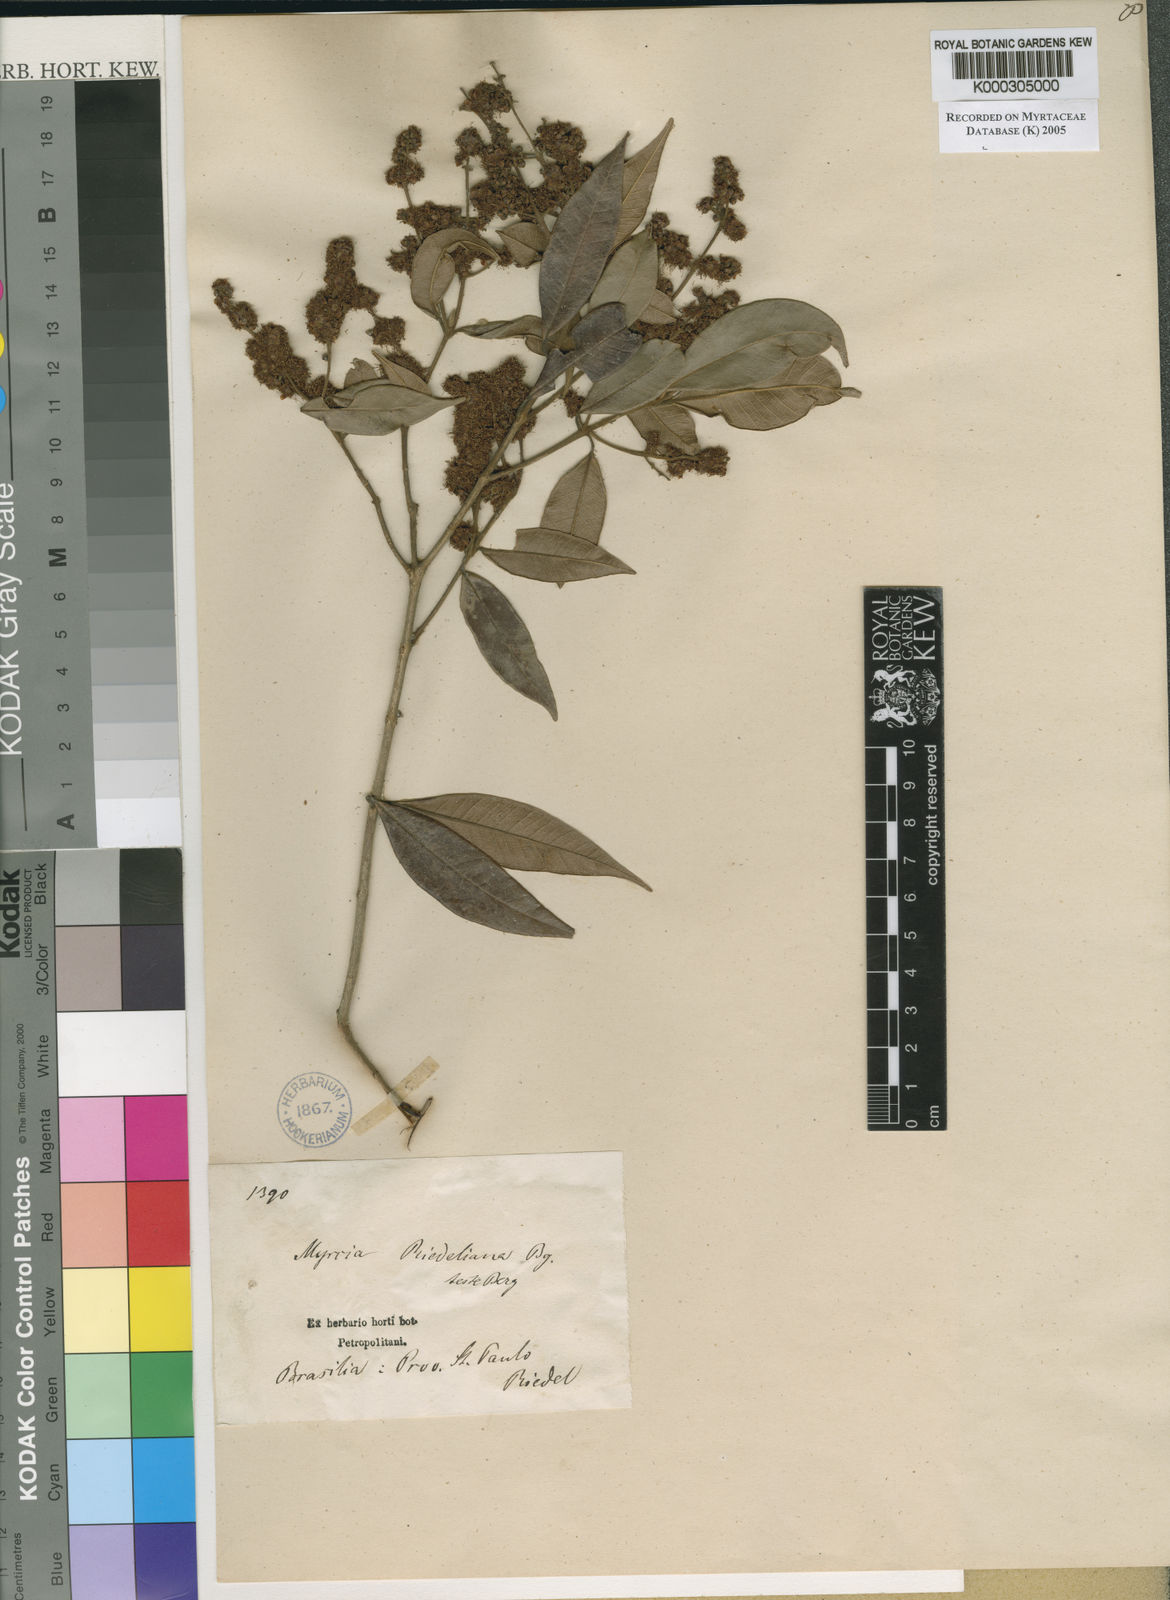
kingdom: Plantae
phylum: Tracheophyta
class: Magnoliopsida
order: Myrtales
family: Myrtaceae
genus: Myrcia
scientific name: Myrcia splendens
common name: Surinam cherry
